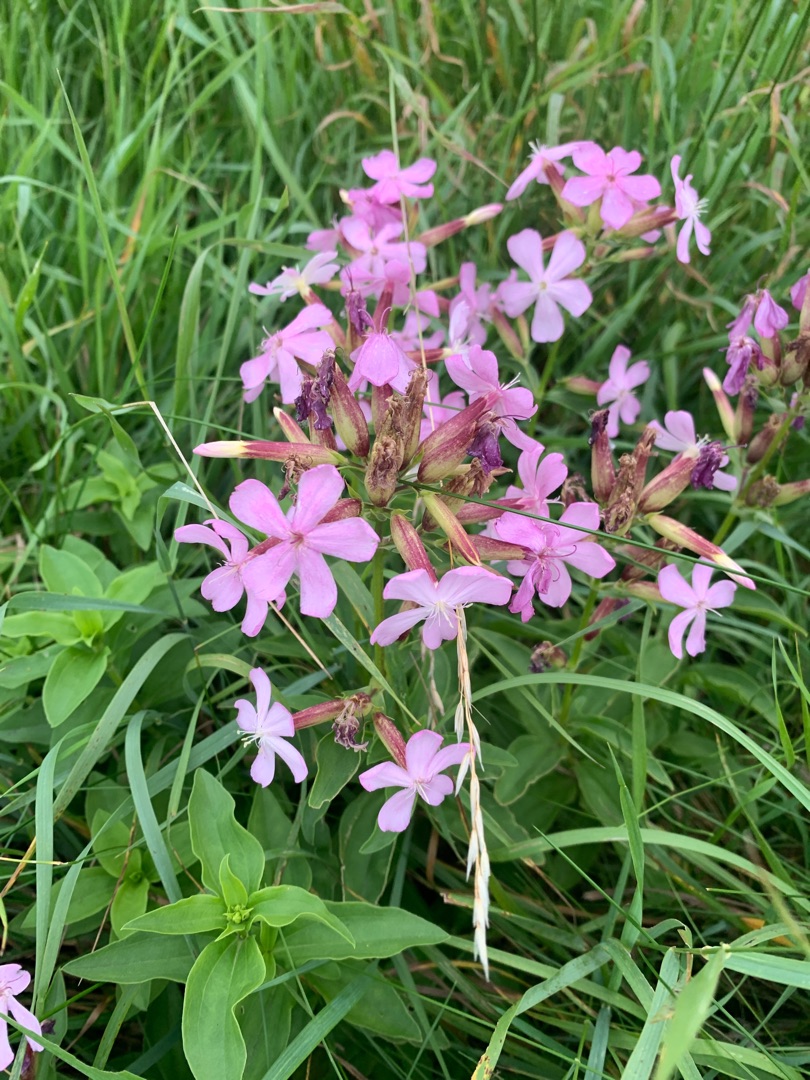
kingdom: Plantae
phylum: Tracheophyta
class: Magnoliopsida
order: Caryophyllales
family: Caryophyllaceae
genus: Saponaria
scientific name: Saponaria officinalis
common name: Sæbeurt
